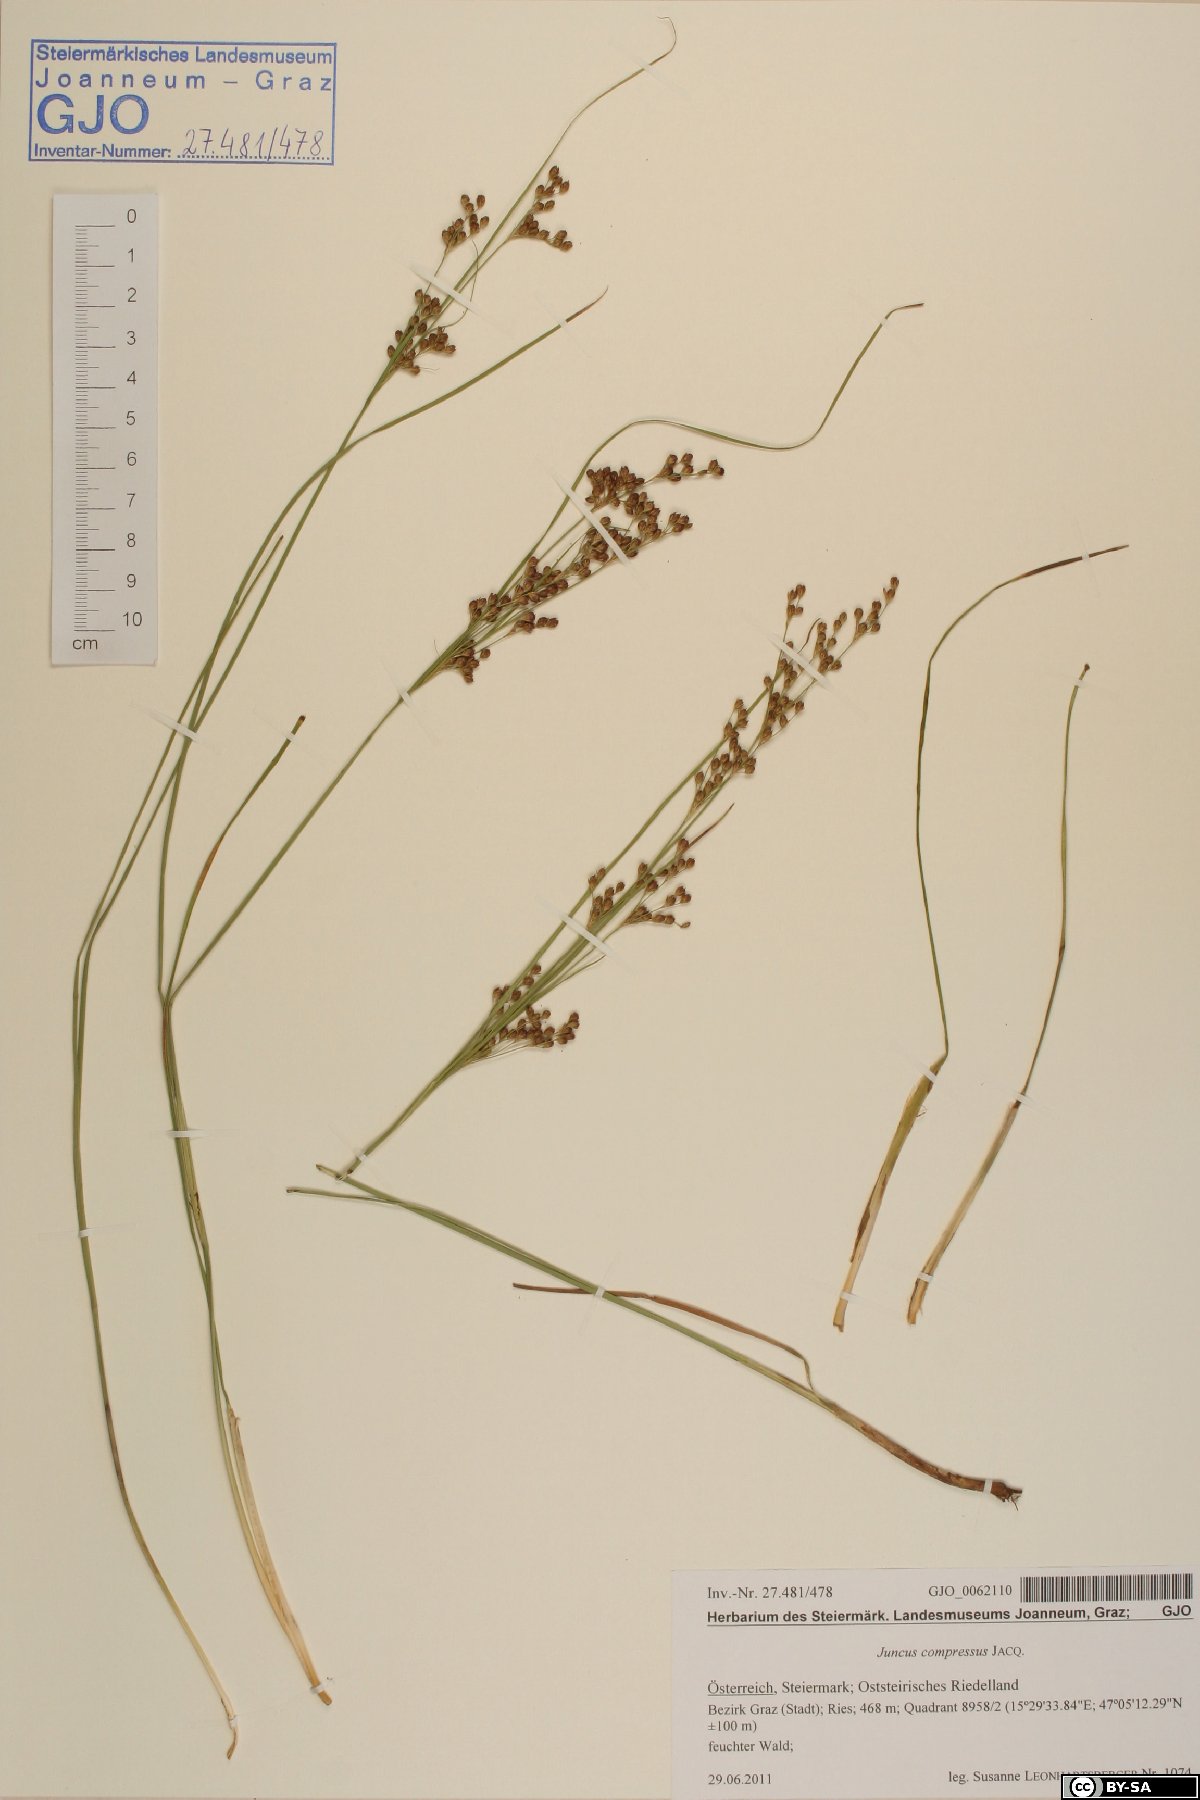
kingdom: Plantae
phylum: Tracheophyta
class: Liliopsida
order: Poales
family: Juncaceae
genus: Juncus
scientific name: Juncus compressus
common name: Round-fruited rush
